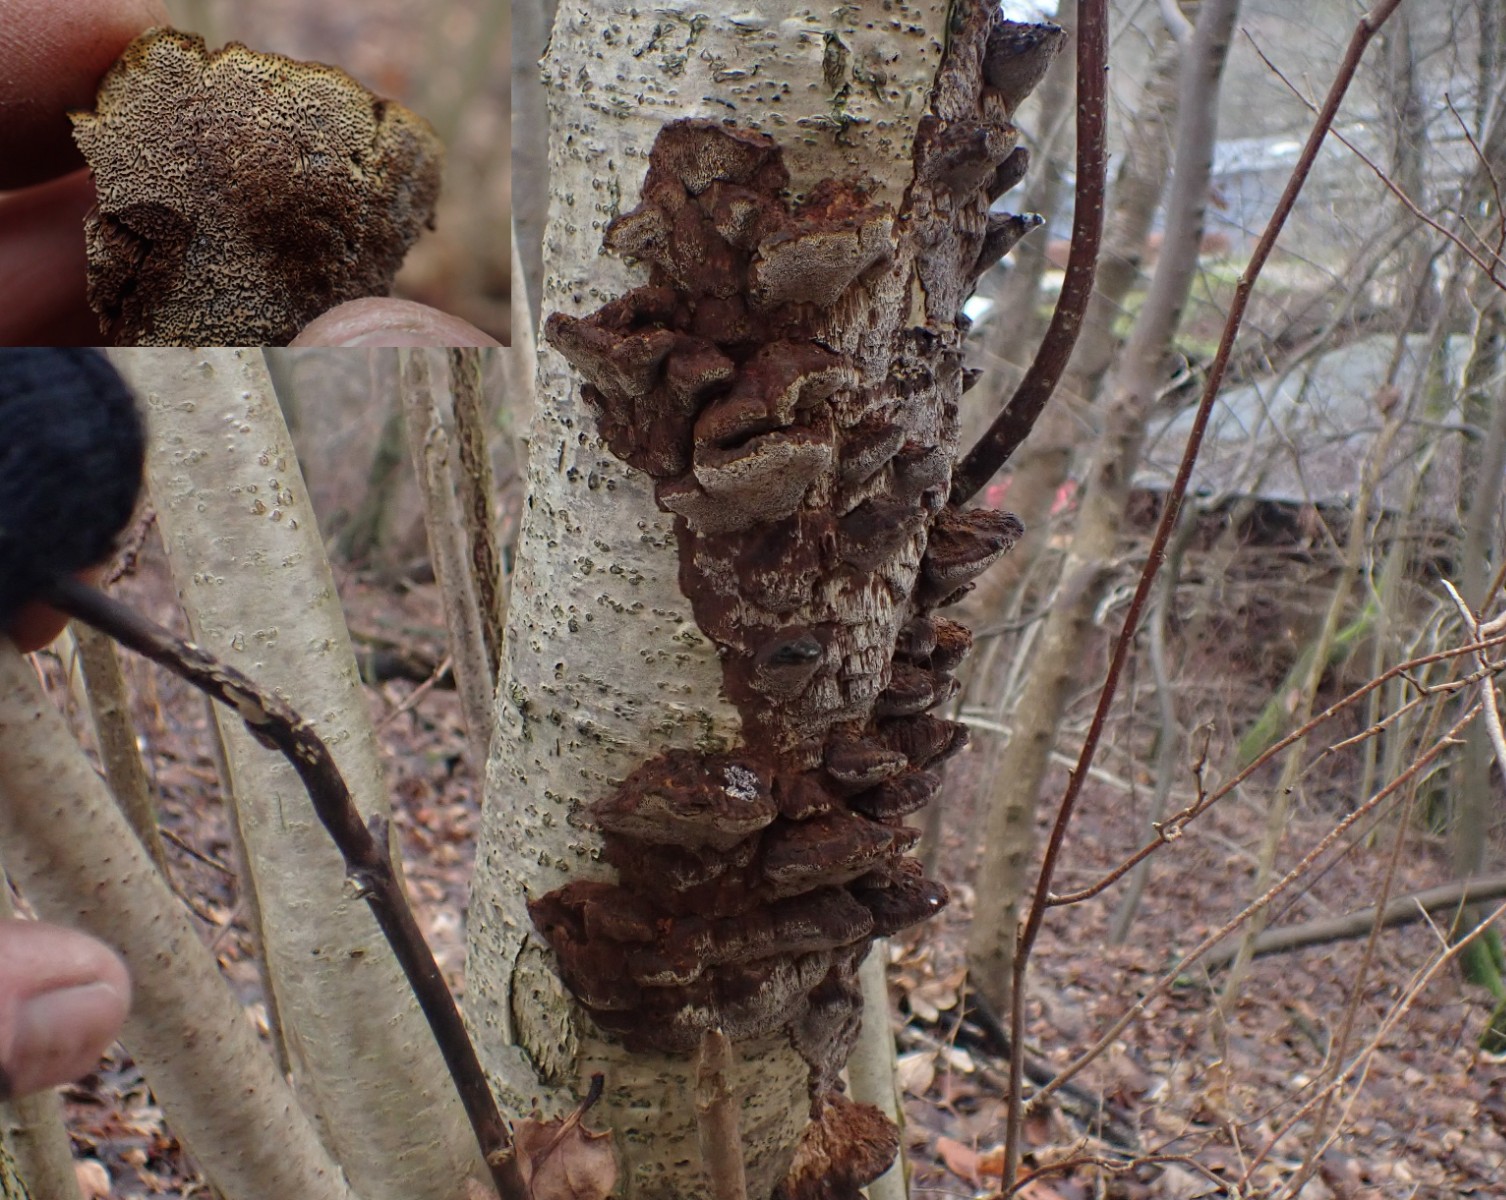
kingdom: Fungi
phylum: Basidiomycota
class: Agaricomycetes
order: Hymenochaetales
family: Hymenochaetaceae
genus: Xanthoporia
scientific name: Xanthoporia radiata
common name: elle-spejlporesvamp
